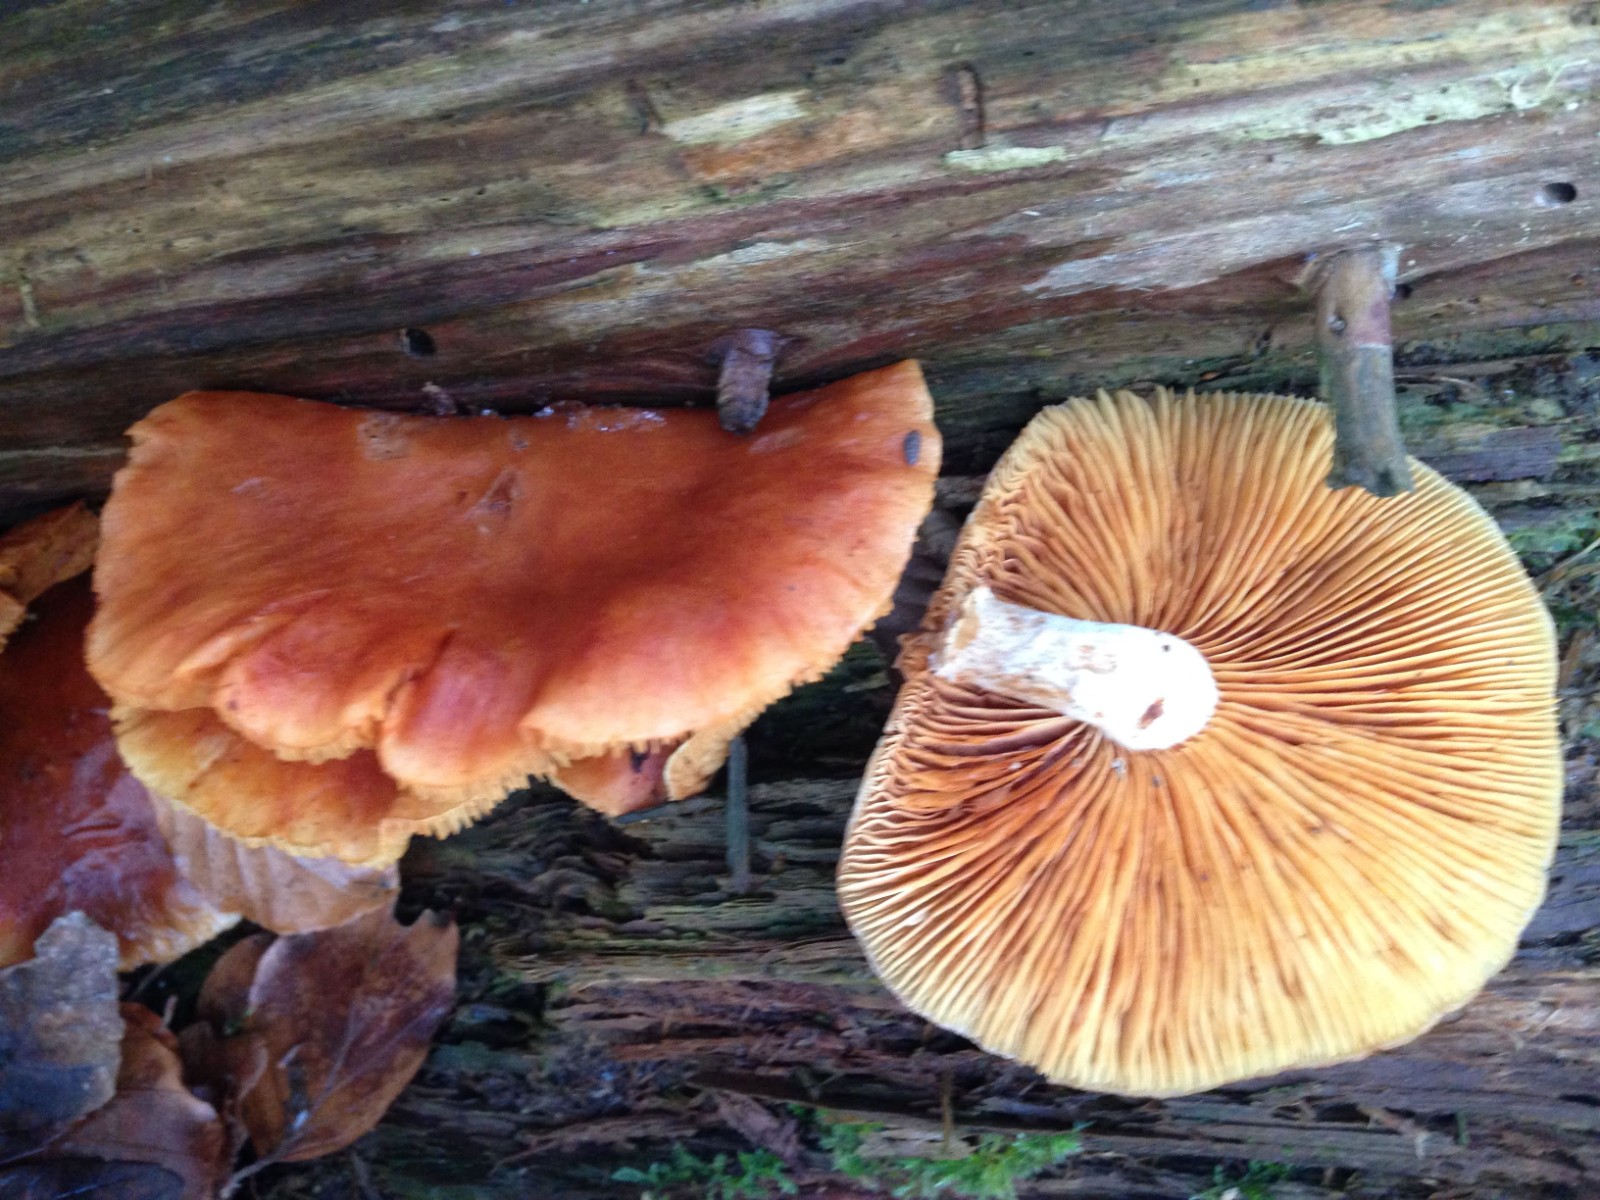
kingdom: Fungi
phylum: Basidiomycota
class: Agaricomycetes
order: Agaricales
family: Hymenogastraceae
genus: Gymnopilus
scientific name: Gymnopilus penetrans
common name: plettet flammehat
